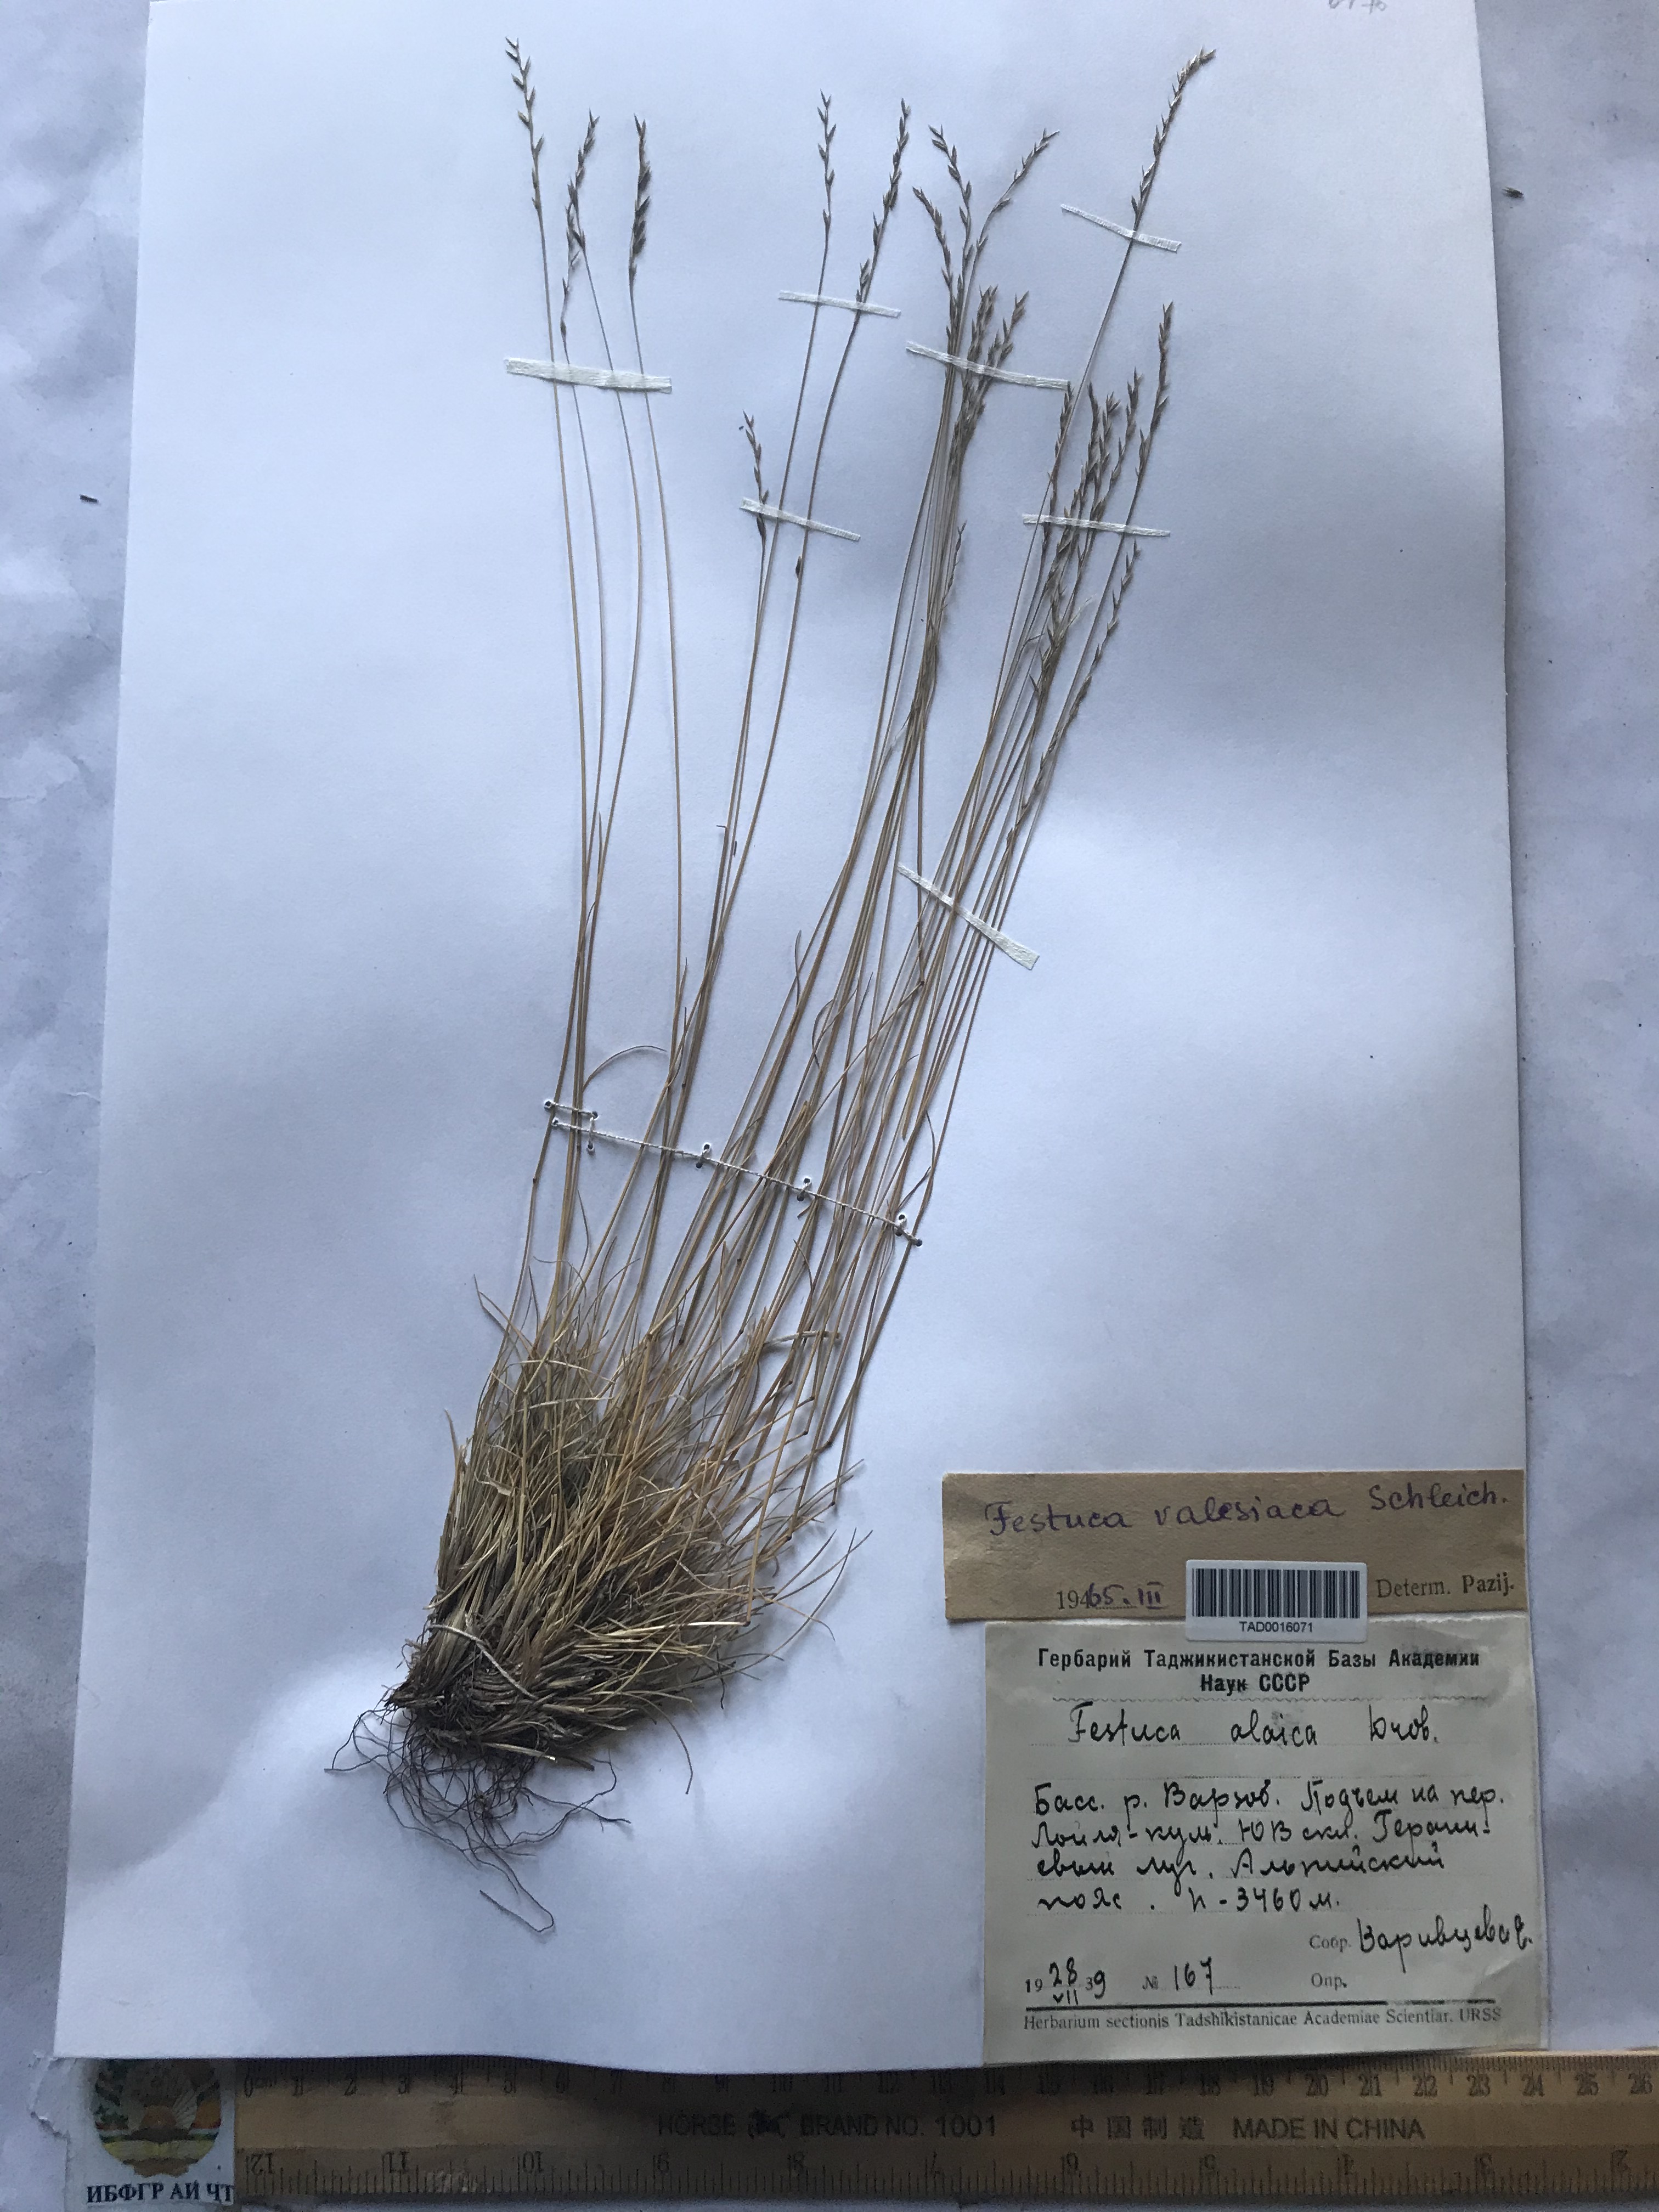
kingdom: Plantae
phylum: Tracheophyta
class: Liliopsida
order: Poales
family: Poaceae
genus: Festuca
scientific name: Festuca valesiaca
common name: Volga fescue
